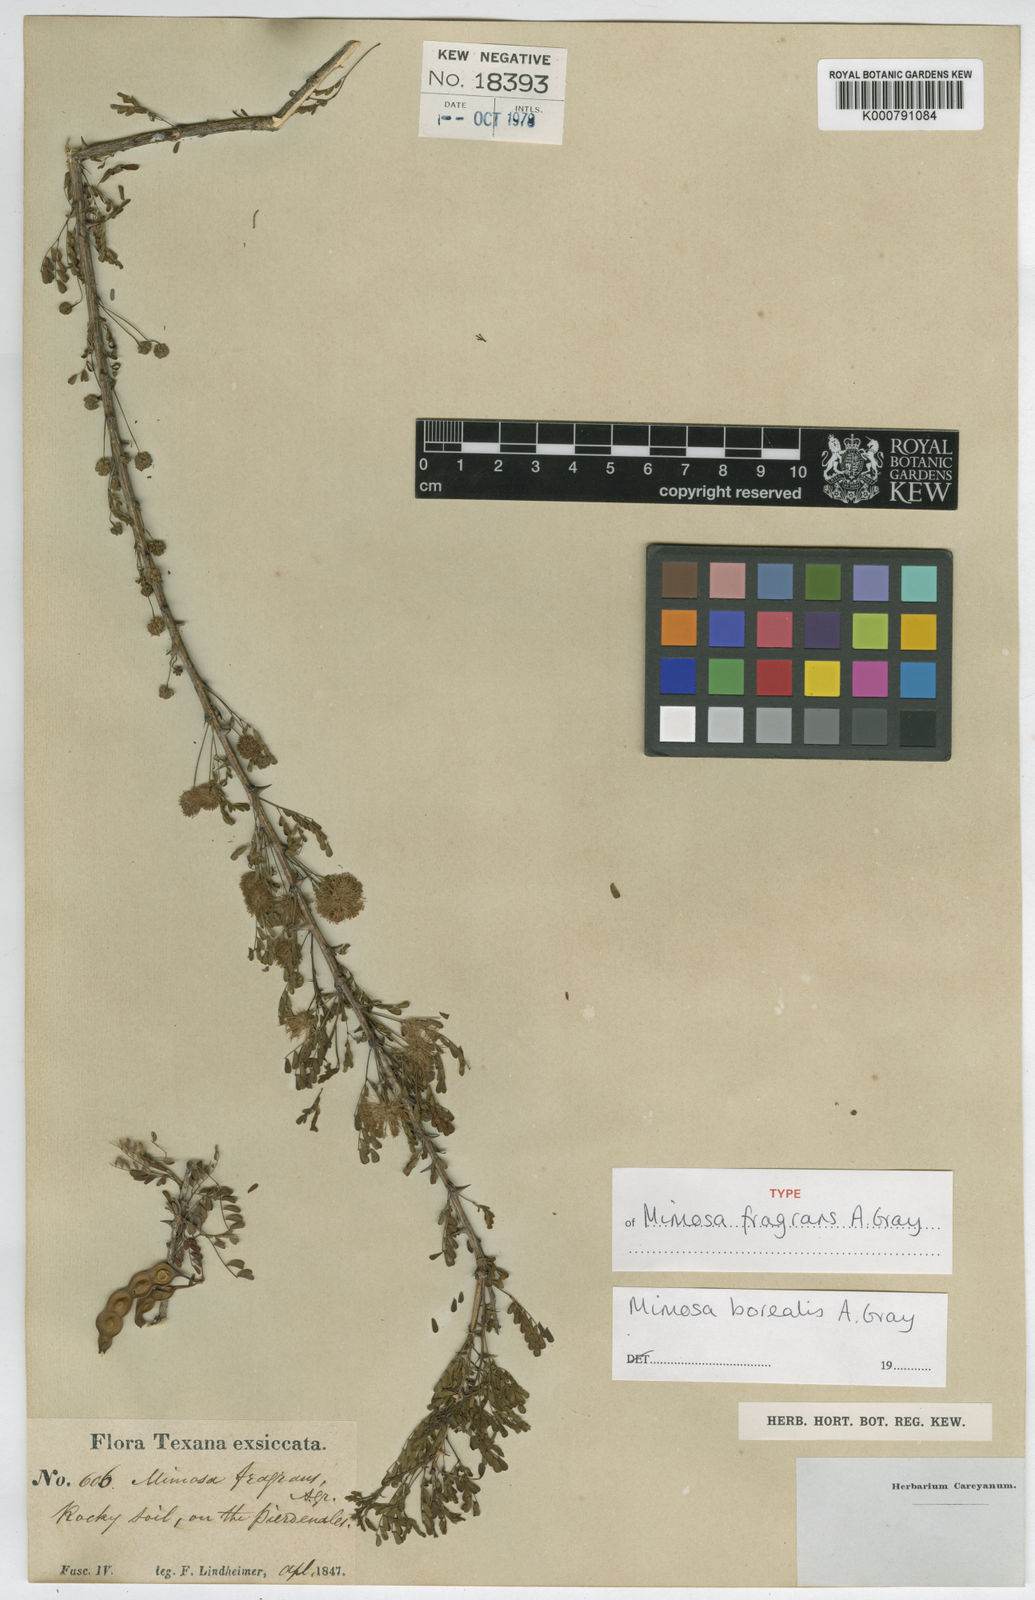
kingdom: Plantae
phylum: Tracheophyta
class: Magnoliopsida
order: Fabales
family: Fabaceae
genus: Mimosa
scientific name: Mimosa borealis
